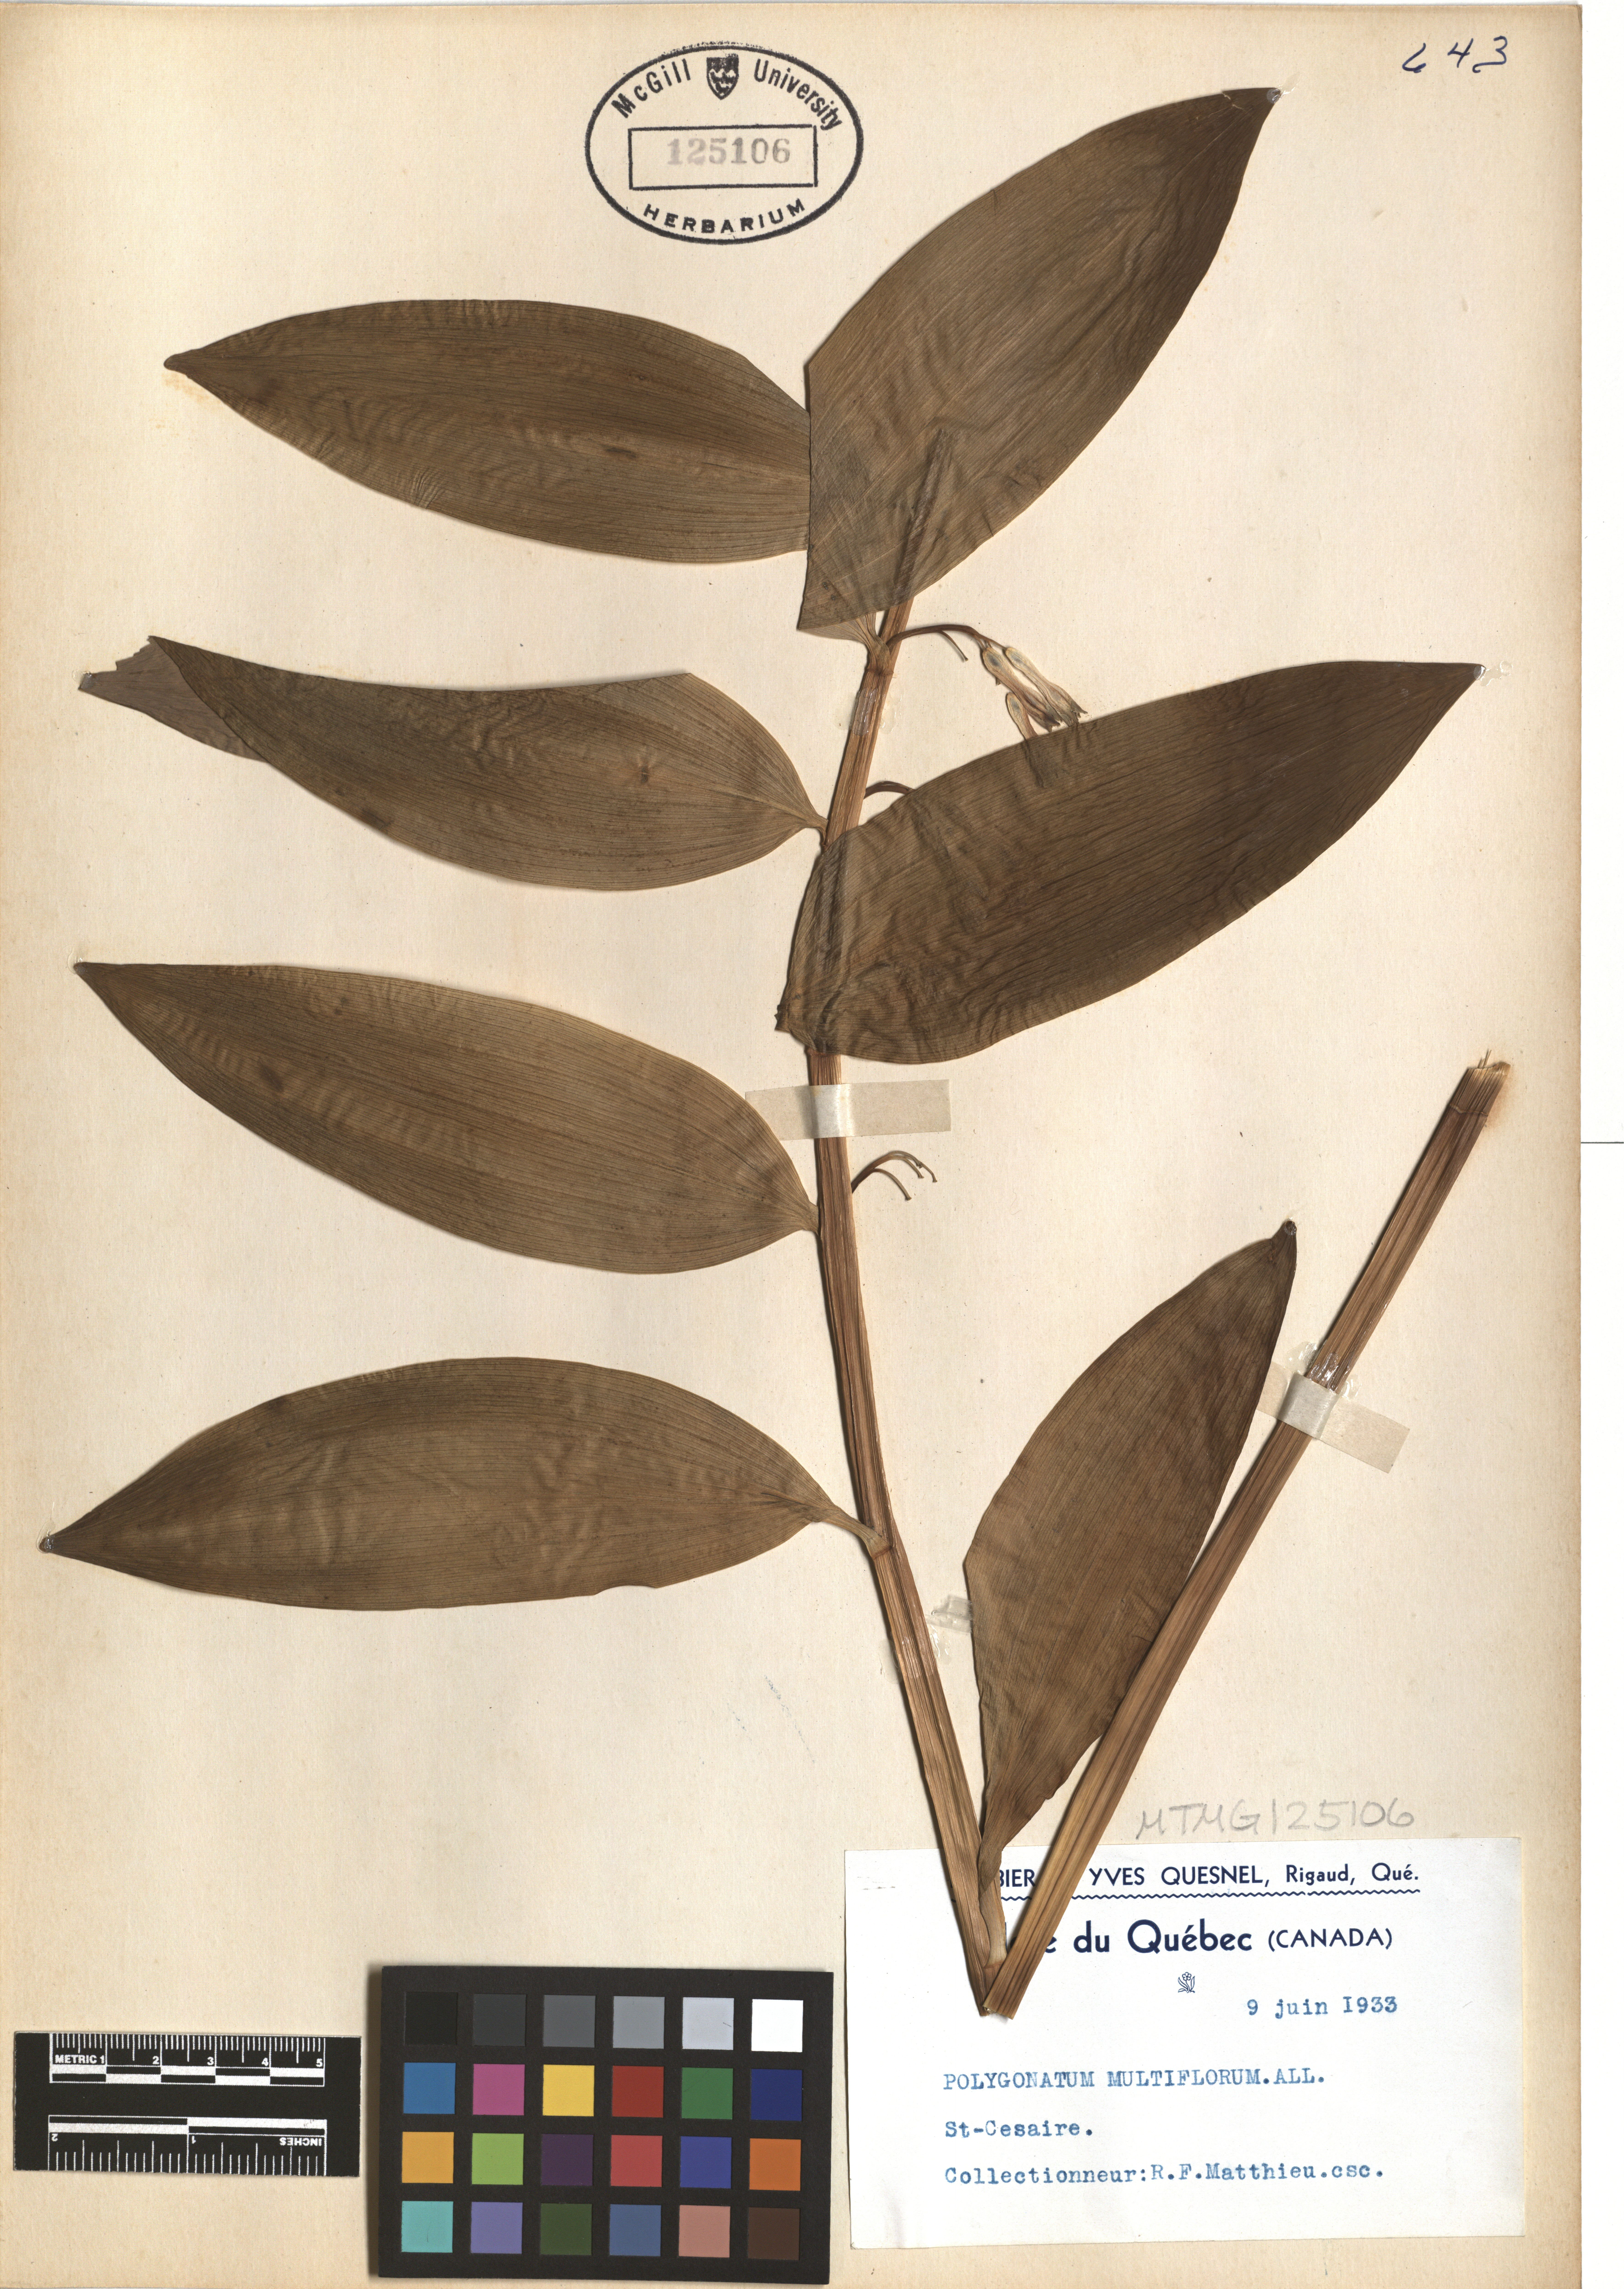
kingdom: Plantae
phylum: Tracheophyta
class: Liliopsida
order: Asparagales
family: Asparagaceae
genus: Polygonatum
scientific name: Polygonatum multiflorum
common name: Solomon's-seal
